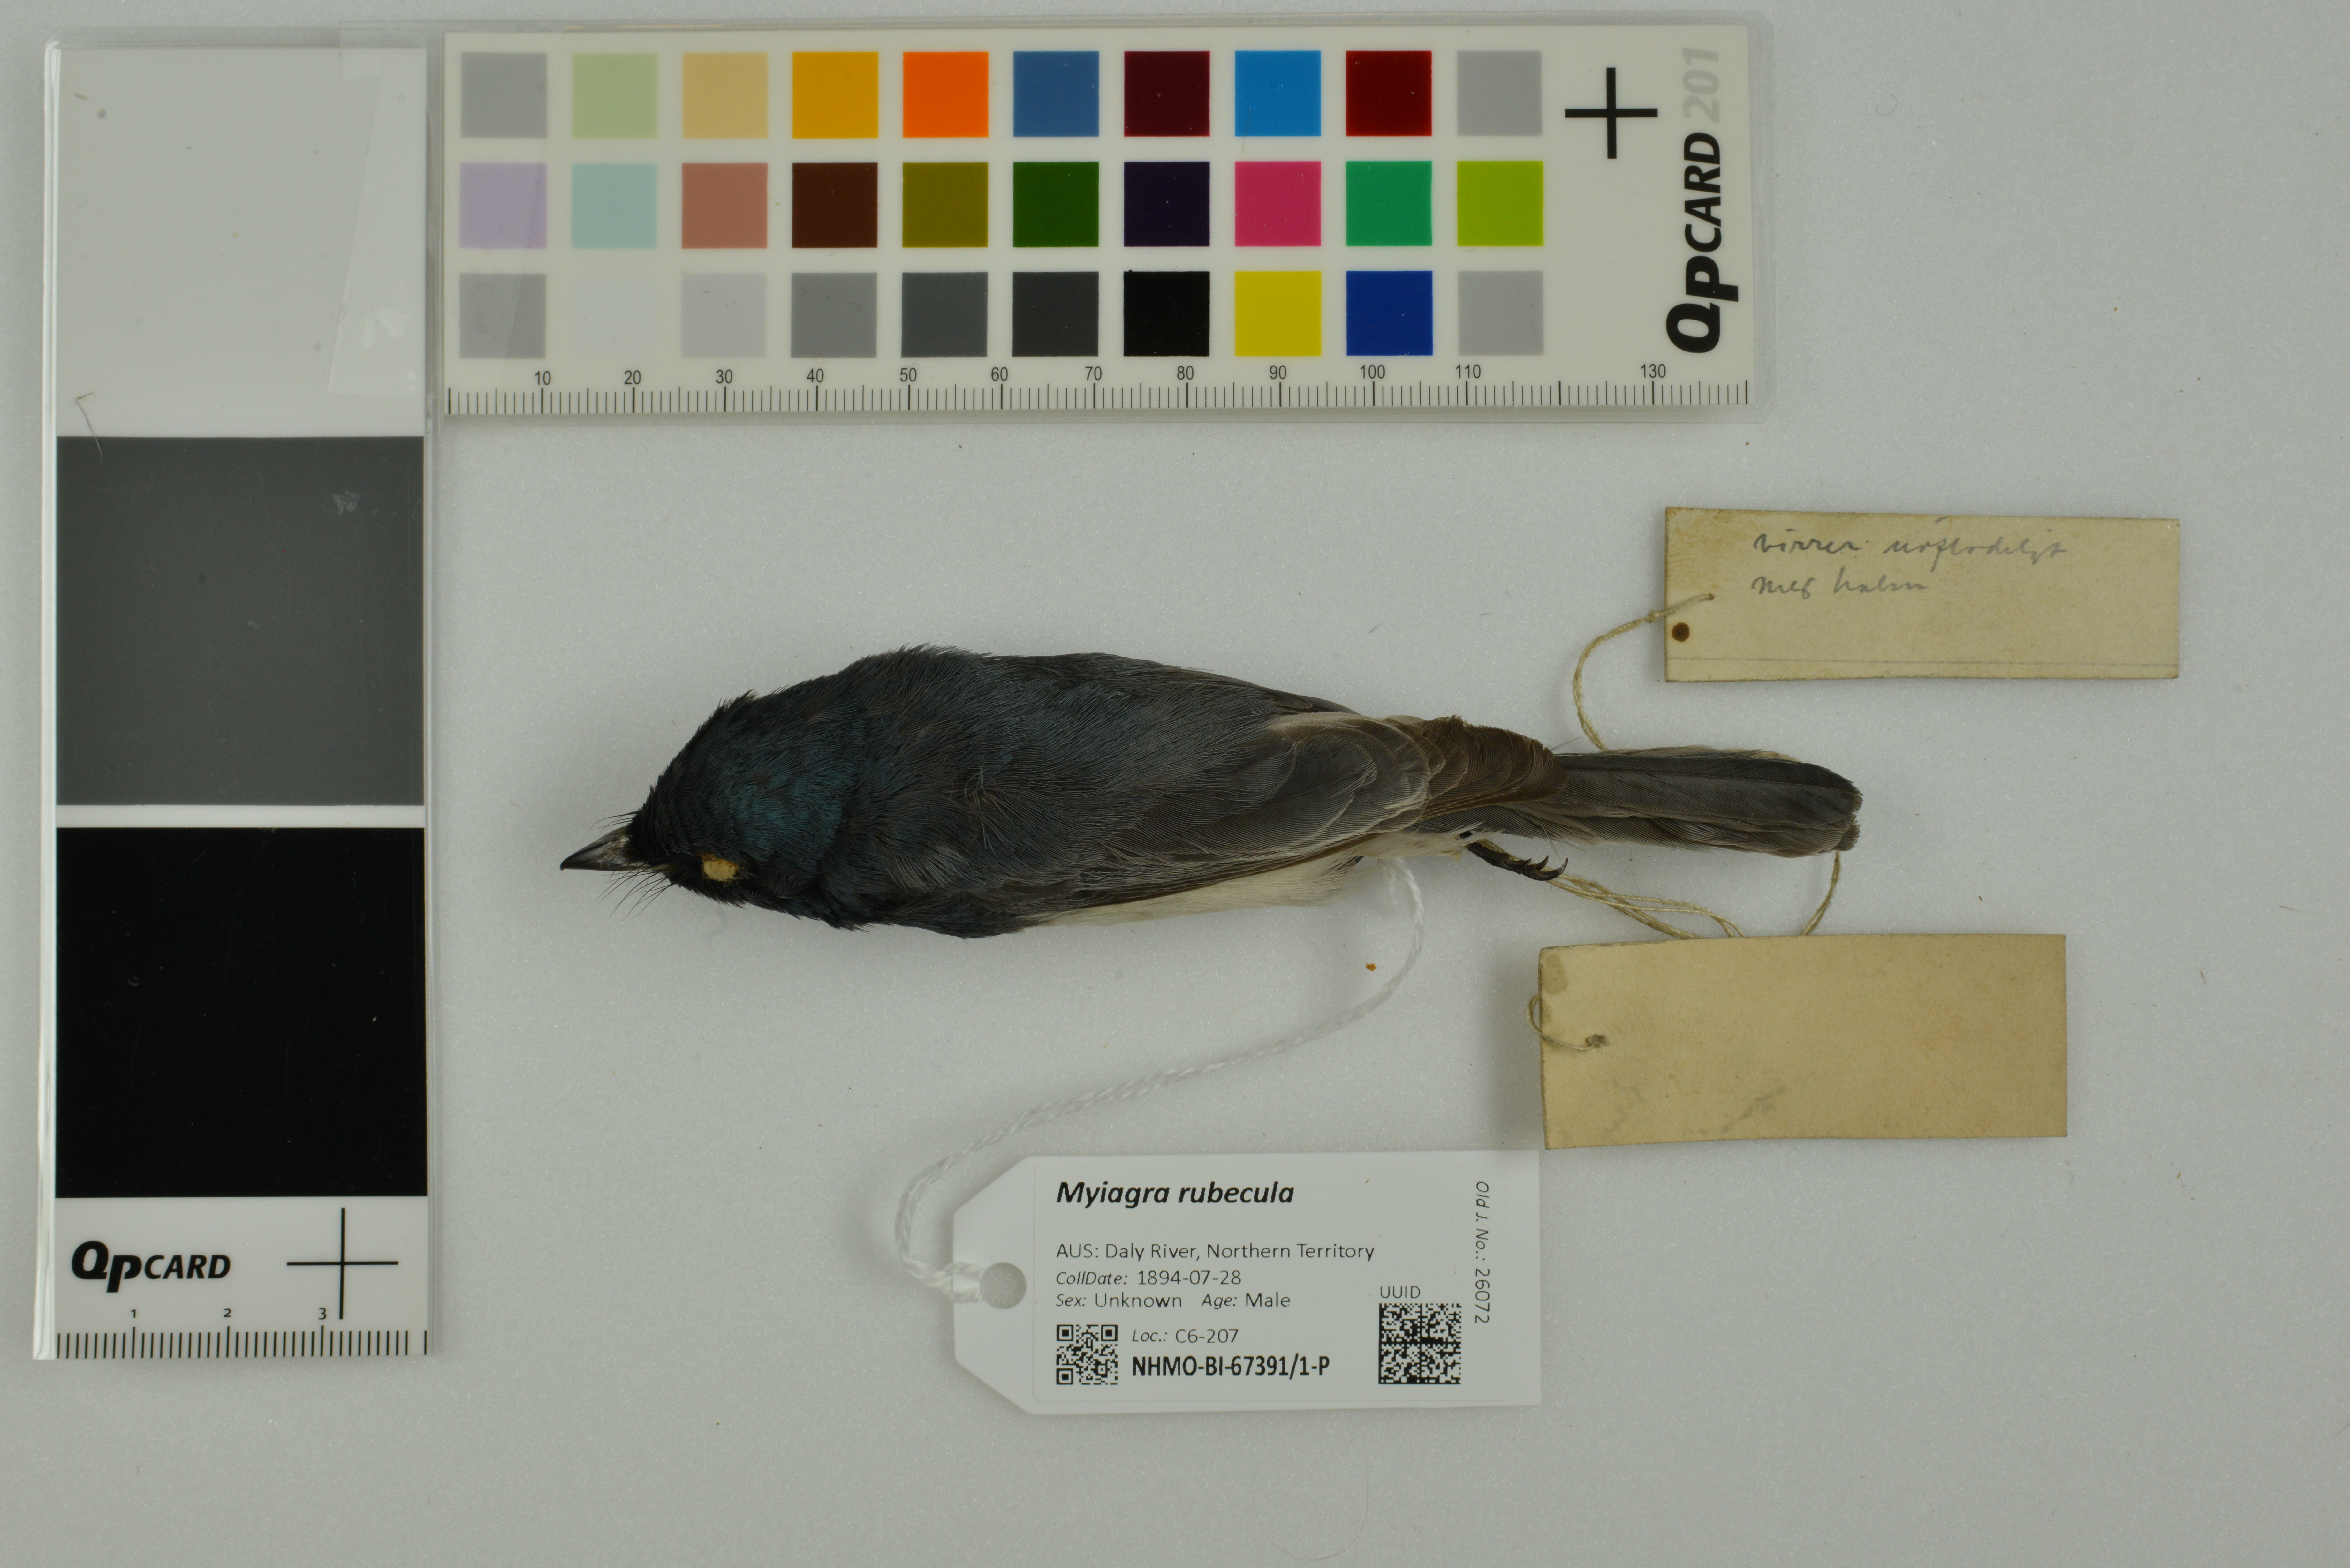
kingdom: Animalia
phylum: Chordata
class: Aves
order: Passeriformes
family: Monarchidae
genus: Myiagra
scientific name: Myiagra rubecula
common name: Leaden flycatcher
